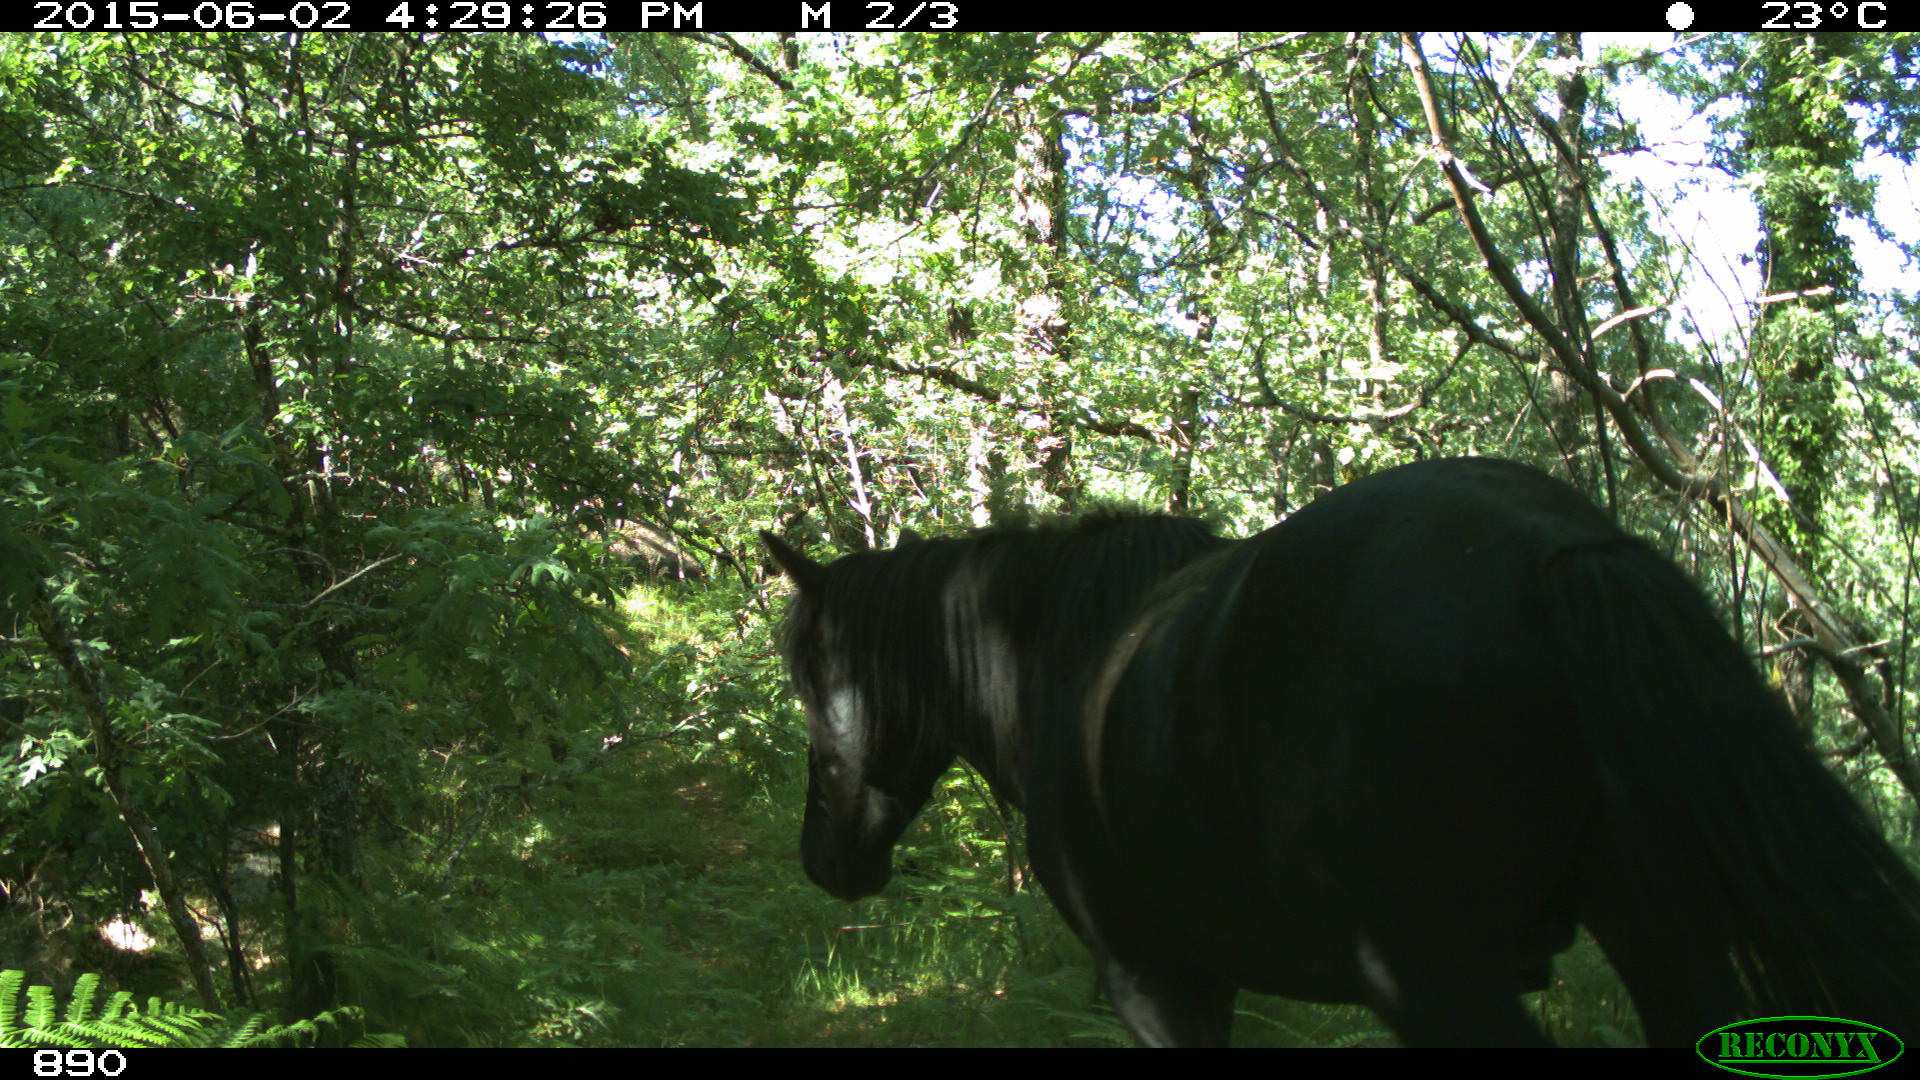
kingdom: Animalia
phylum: Chordata
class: Mammalia
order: Perissodactyla
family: Equidae
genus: Equus
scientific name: Equus caballus
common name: Horse
